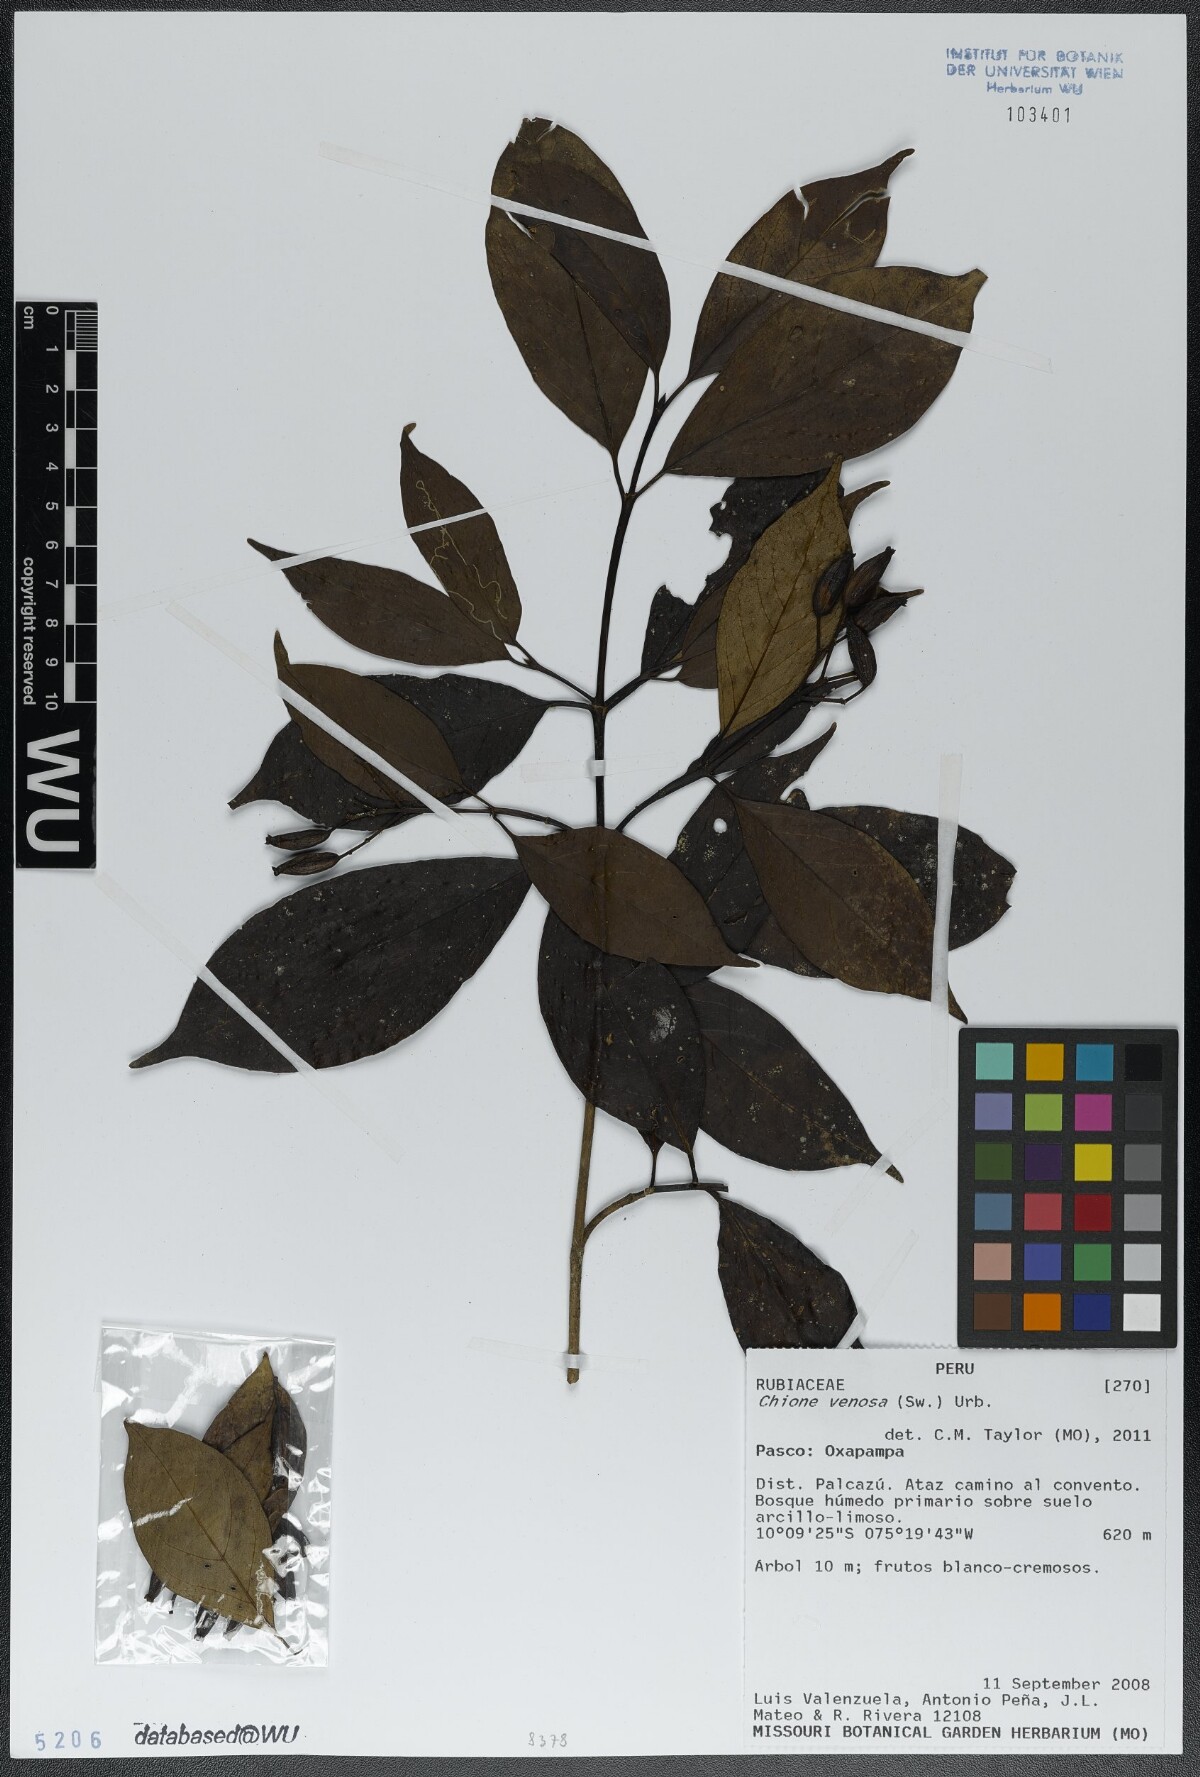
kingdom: Plantae
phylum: Tracheophyta
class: Magnoliopsida
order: Gentianales
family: Rubiaceae
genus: Chione
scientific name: Chione venosa
